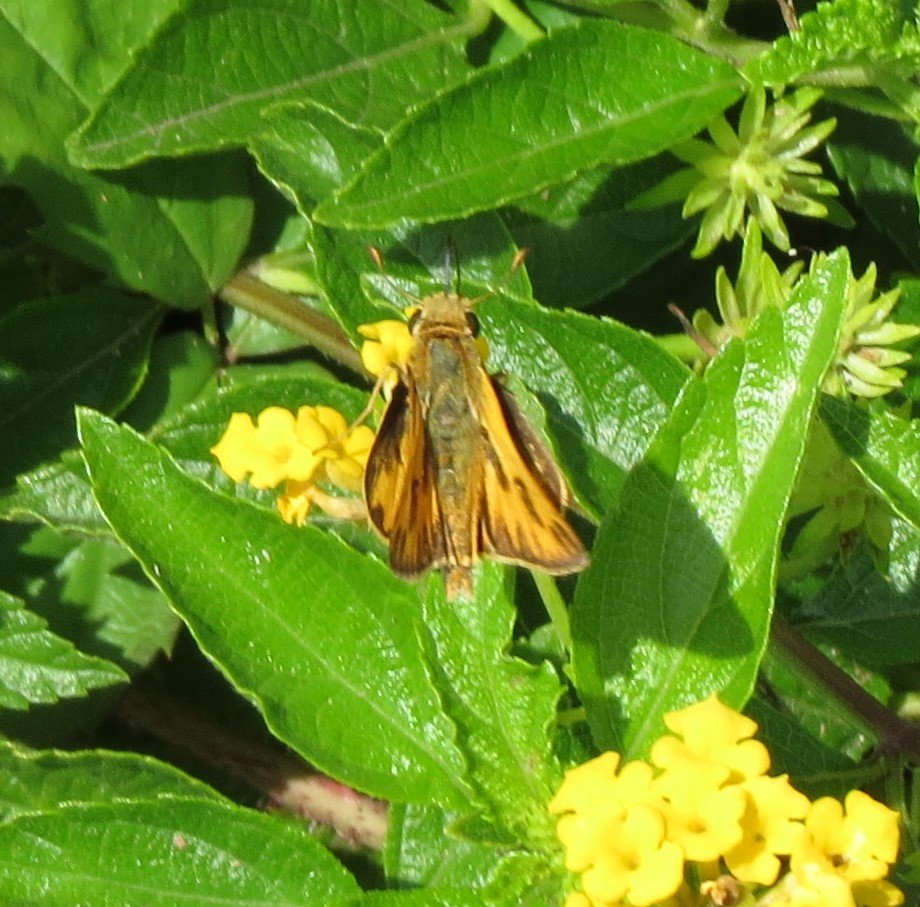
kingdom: Animalia
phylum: Arthropoda
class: Insecta
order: Lepidoptera
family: Hesperiidae
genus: Hylephila
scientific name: Hylephila phyleus
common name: Fiery Skipper
